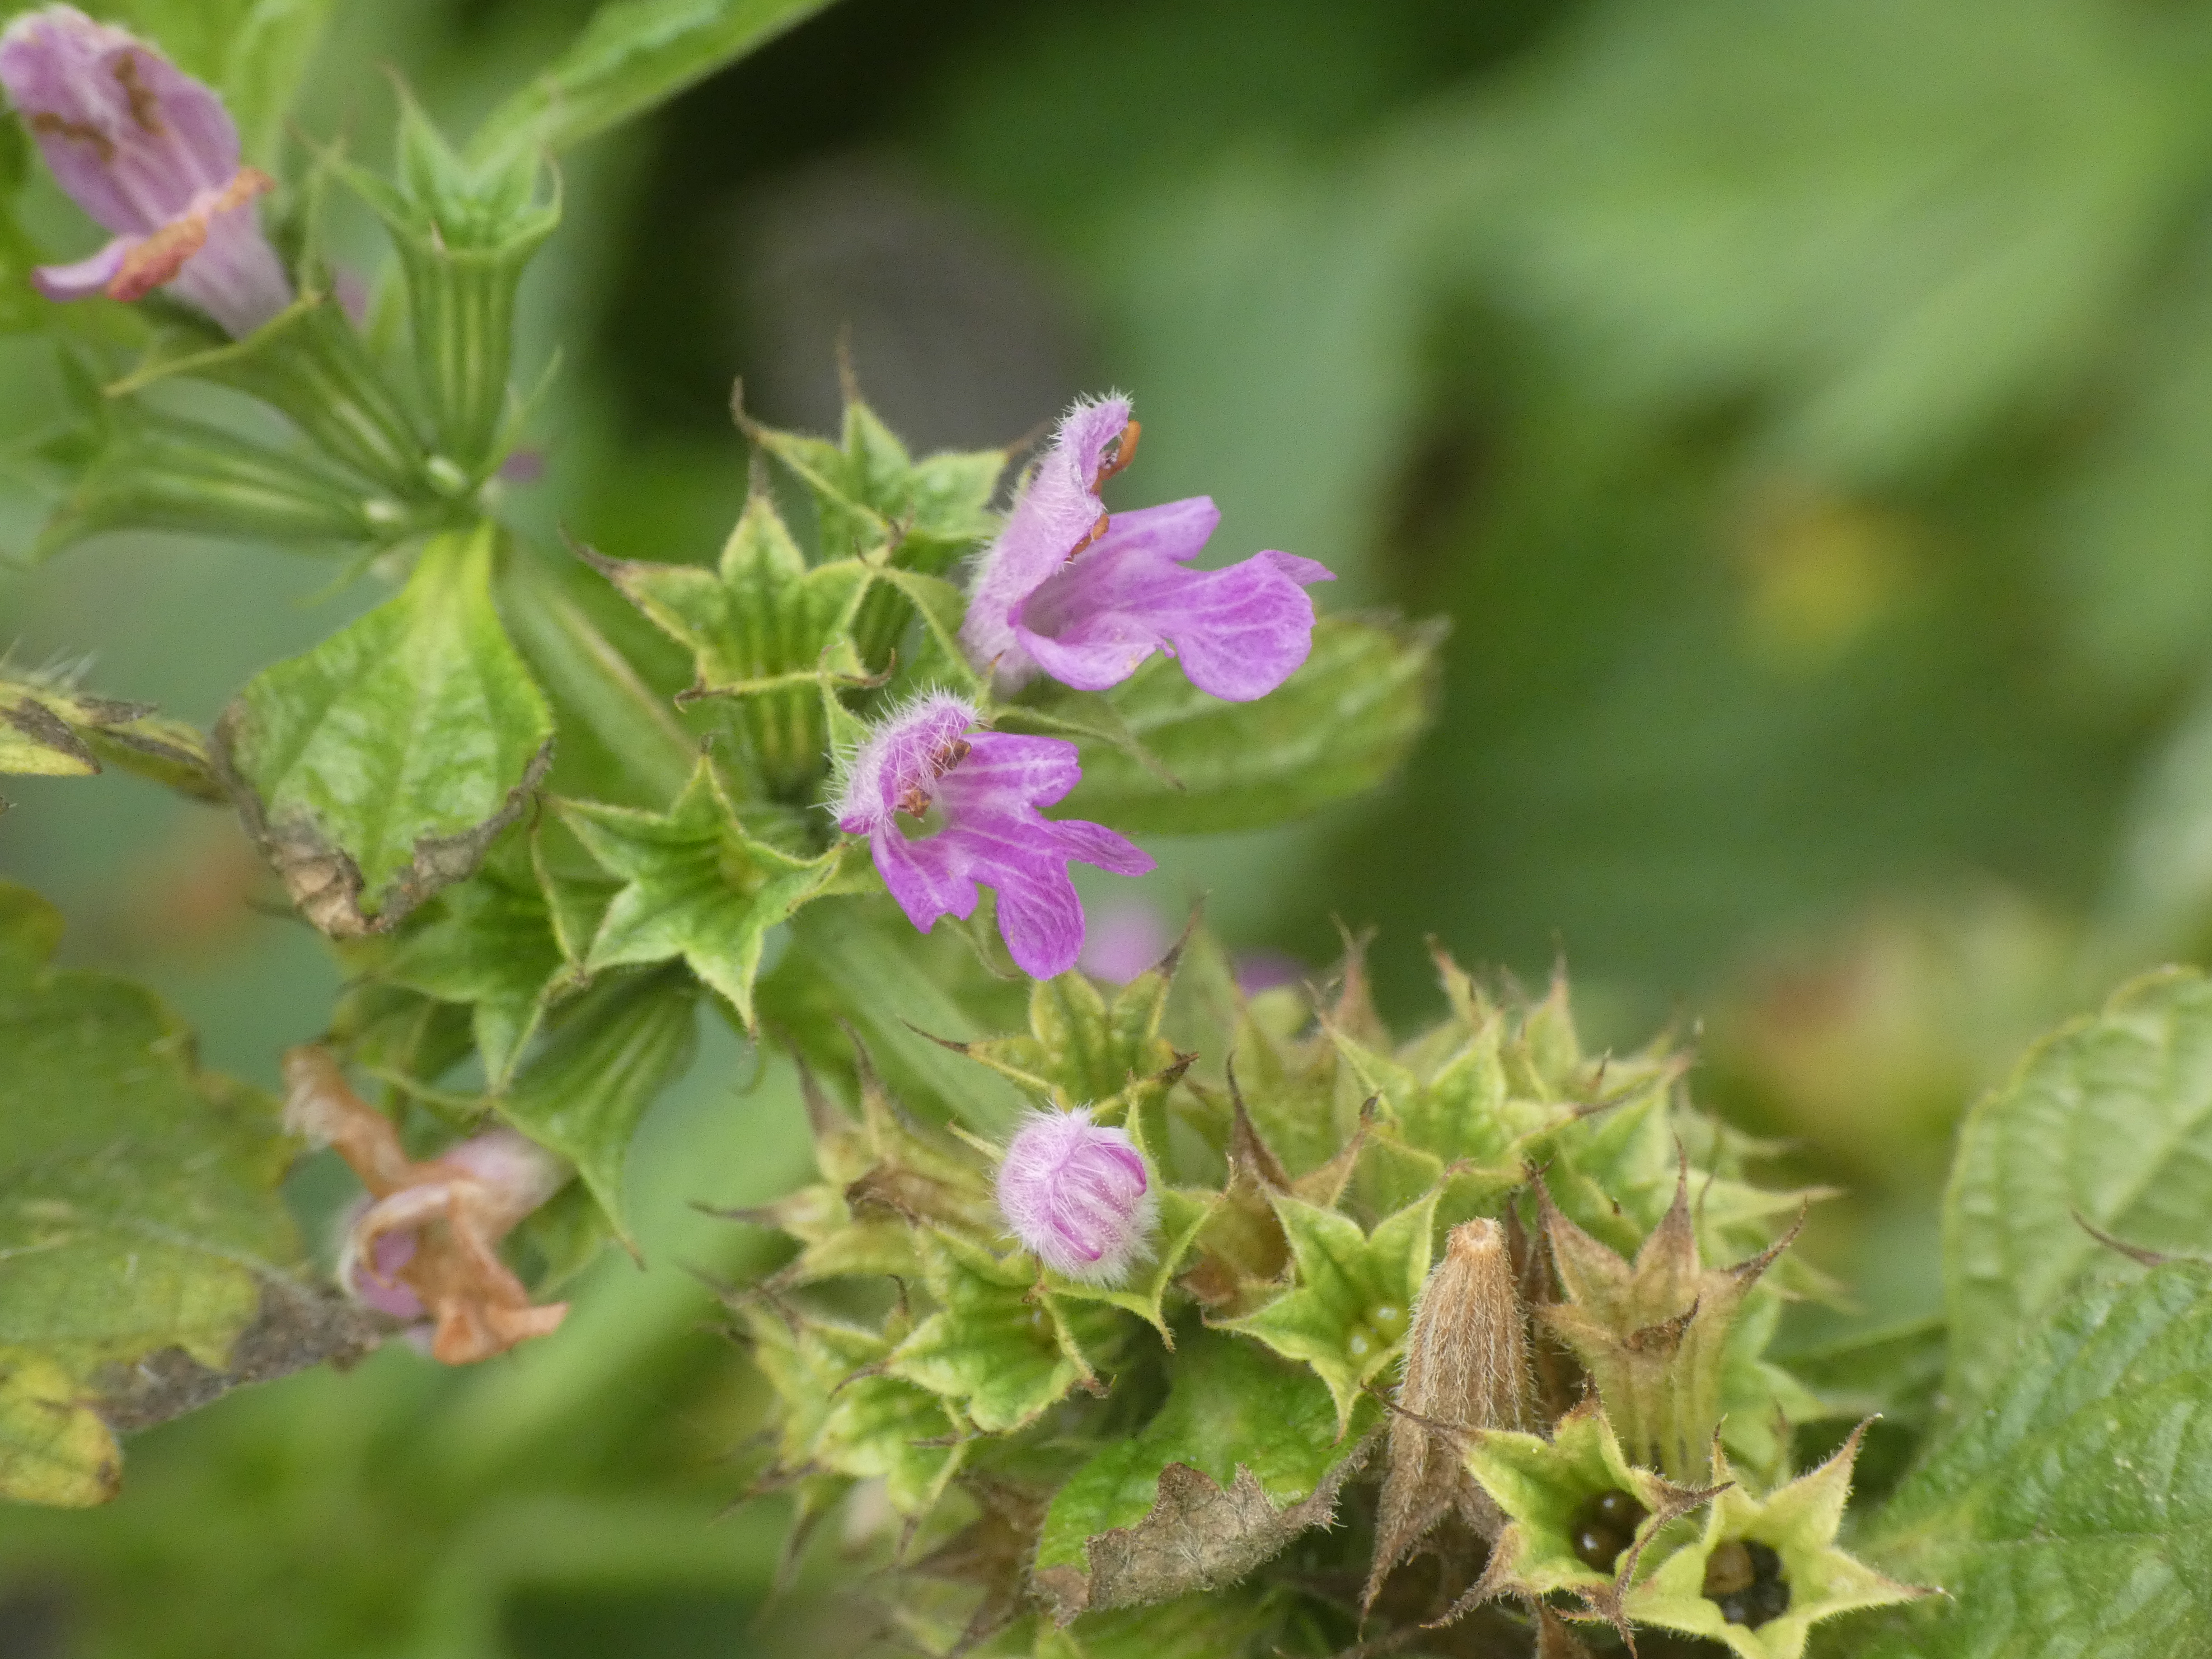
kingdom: Plantae
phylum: Tracheophyta
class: Magnoliopsida
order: Lamiales
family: Lamiaceae
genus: Ballota
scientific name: Ballota nigra
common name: Rød tandbæger
